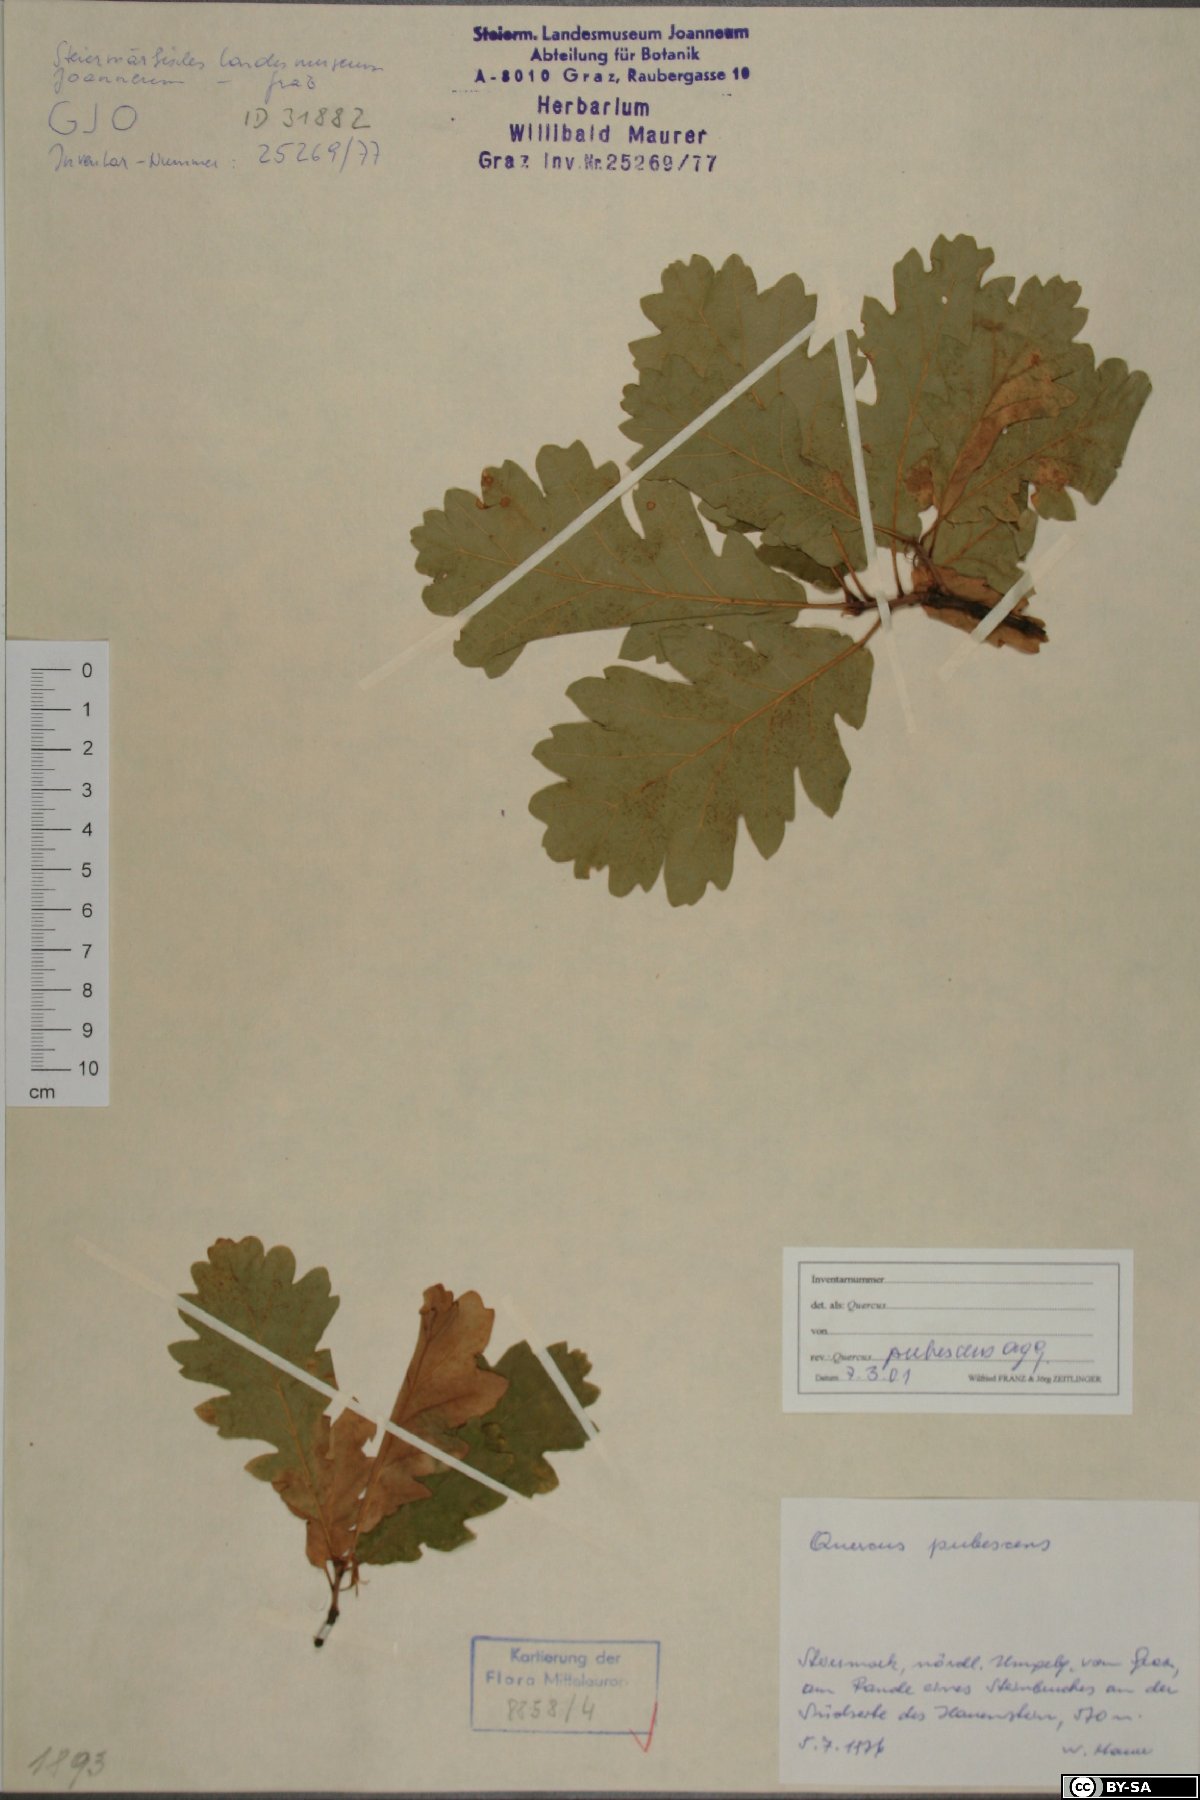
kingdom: Plantae
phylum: Tracheophyta
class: Magnoliopsida
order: Fagales
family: Fagaceae
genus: Quercus
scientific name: Quercus pubescens
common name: Downy oak
